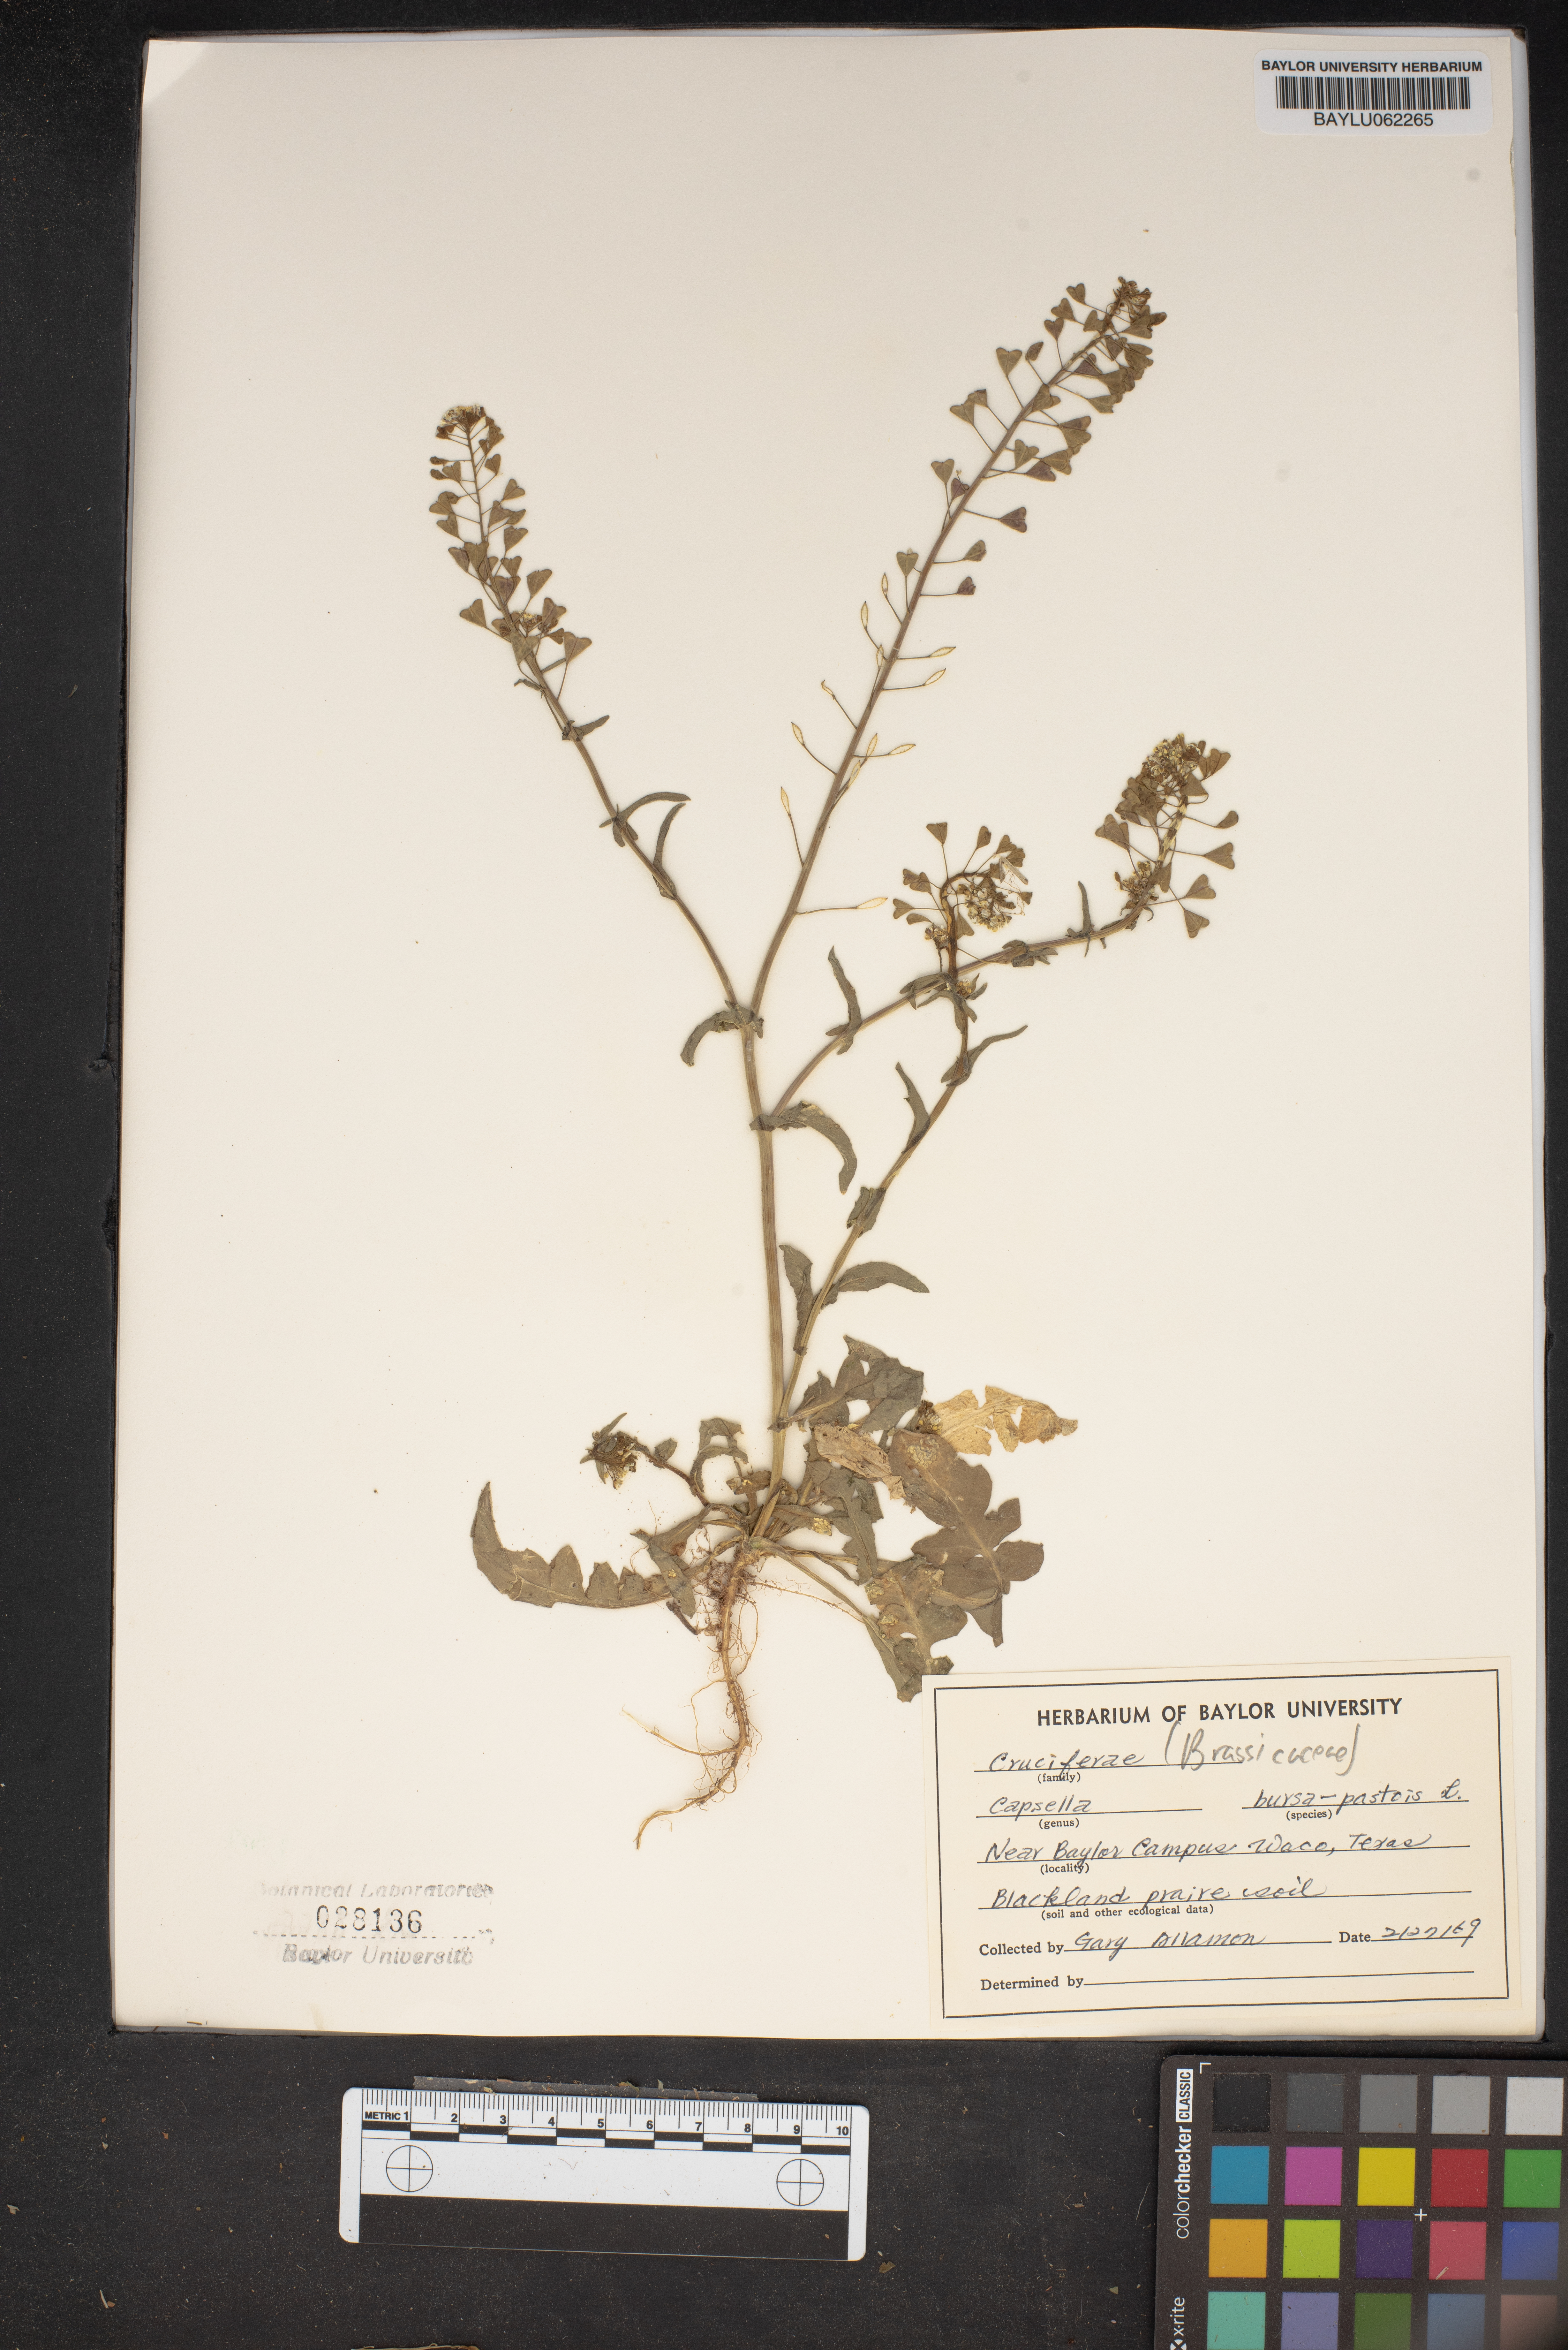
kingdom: Plantae
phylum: Tracheophyta
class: Magnoliopsida
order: Brassicales
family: Brassicaceae
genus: Capsella
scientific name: Capsella bursa-pastoris
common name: Shepherd's purse
